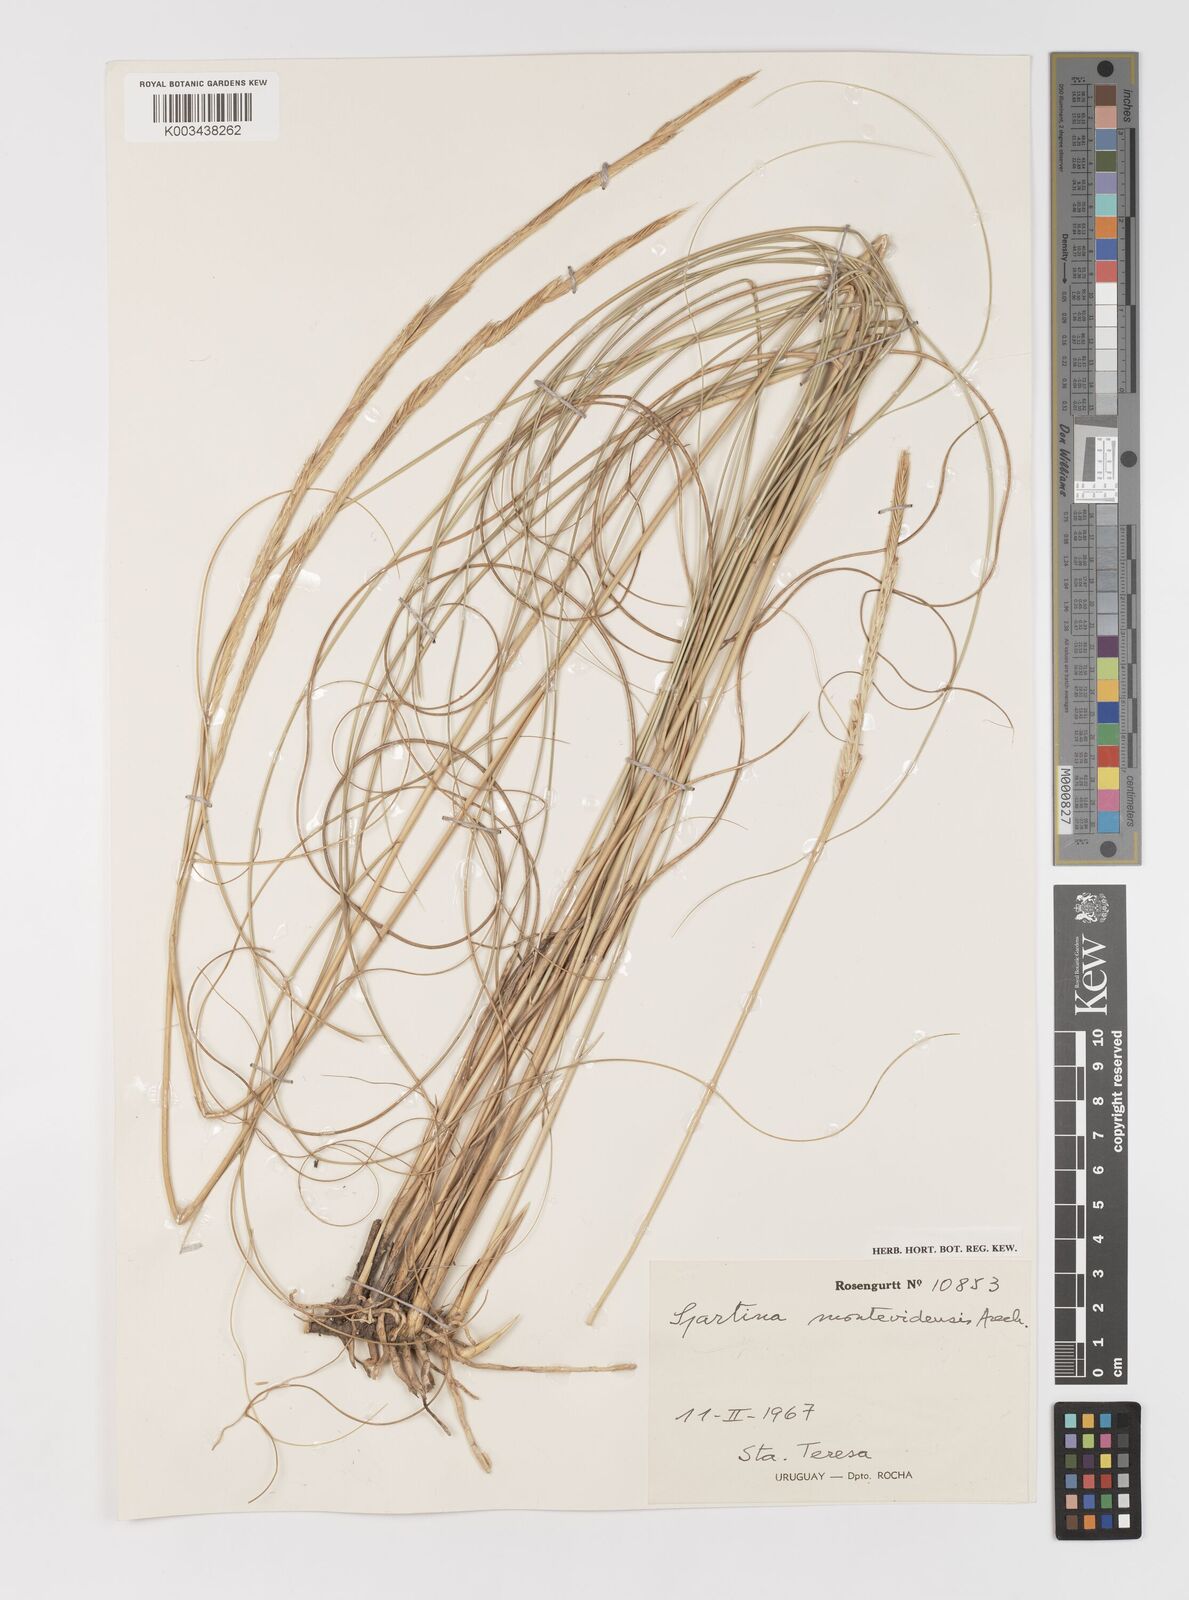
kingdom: Plantae
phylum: Tracheophyta
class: Liliopsida
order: Poales
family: Poaceae
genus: Sporobolus
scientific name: Sporobolus montevidensis
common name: Montevideo dropseed
